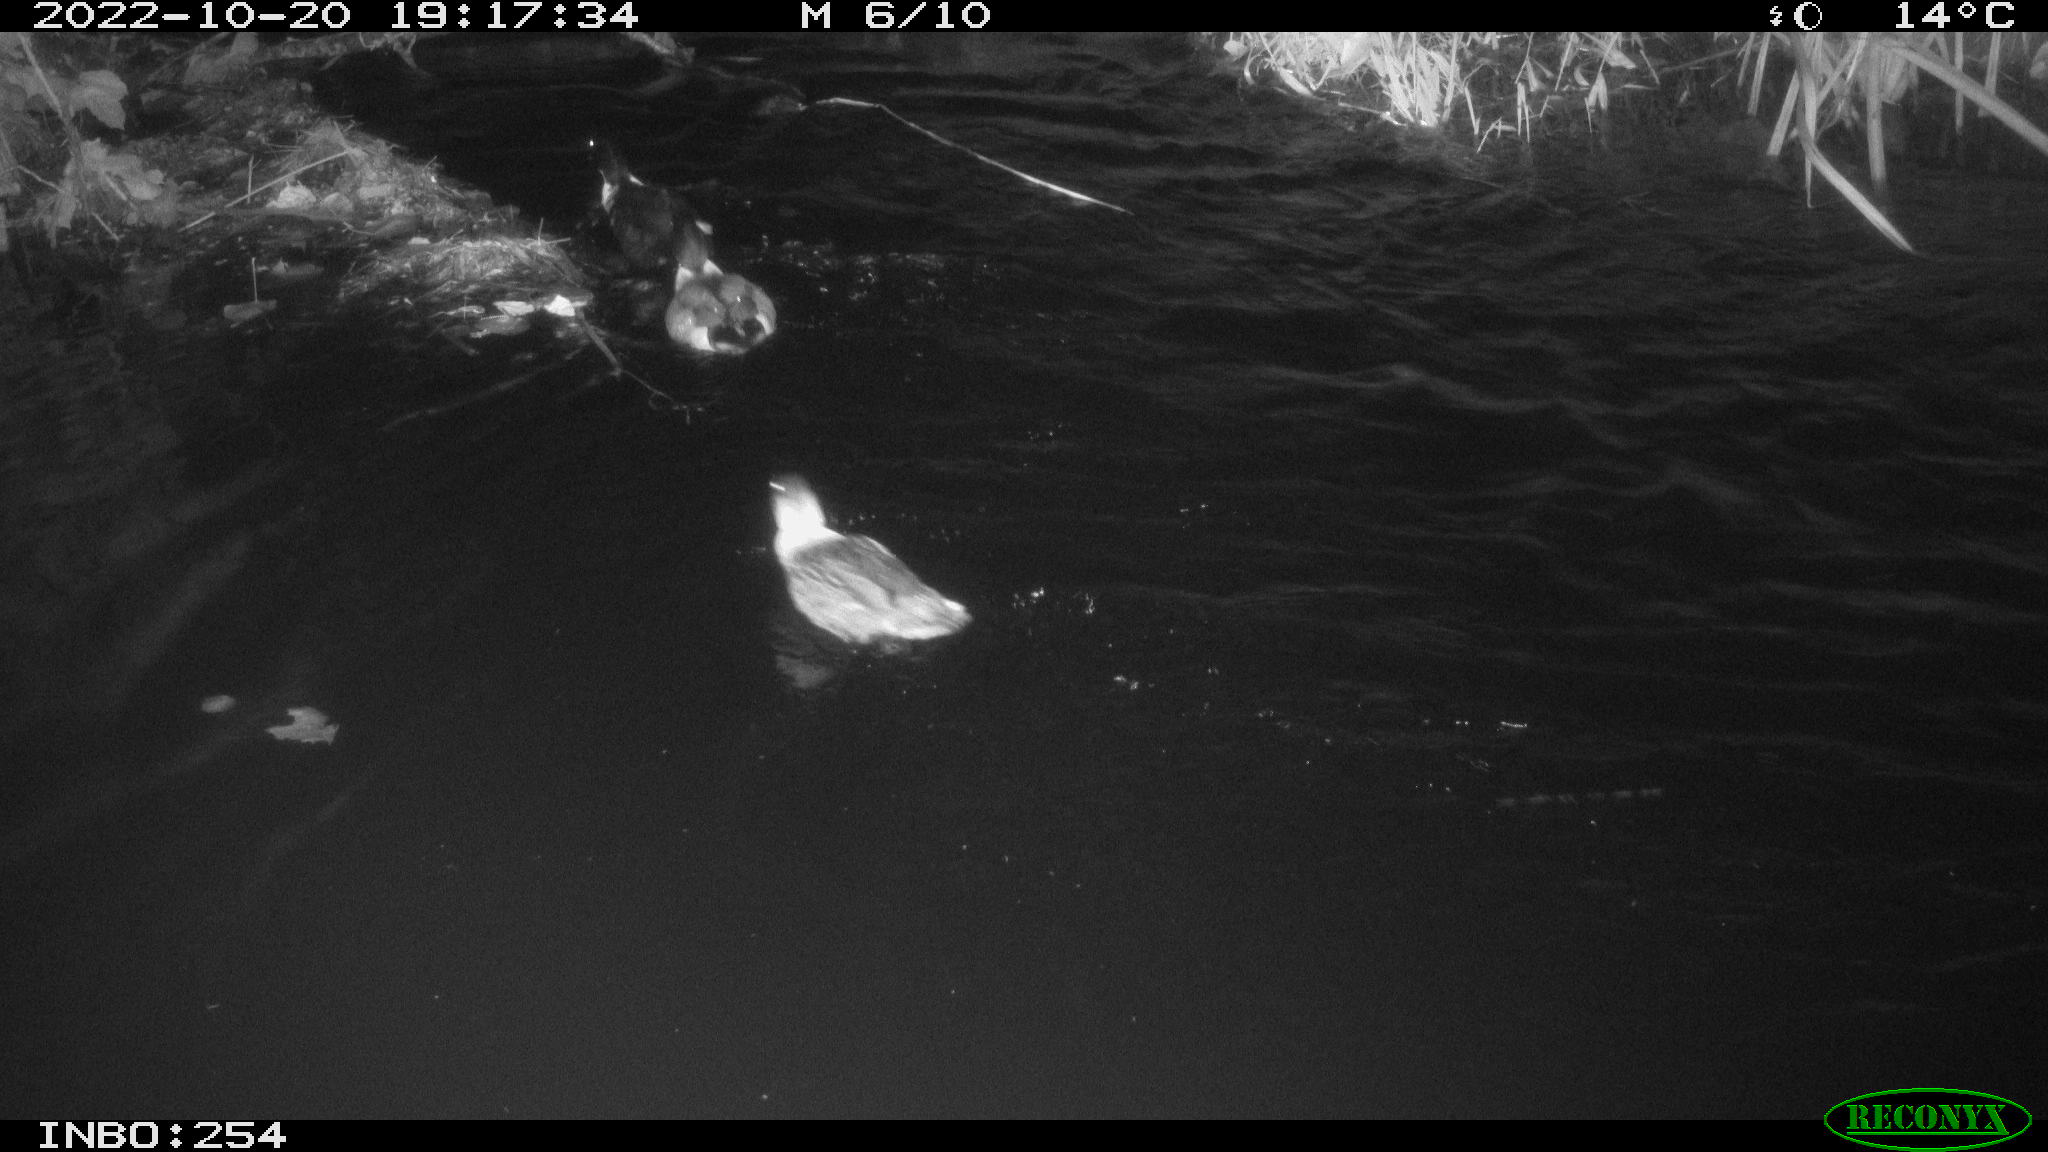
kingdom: Animalia
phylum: Chordata
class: Aves
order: Anseriformes
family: Anatidae
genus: Anas
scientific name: Anas
